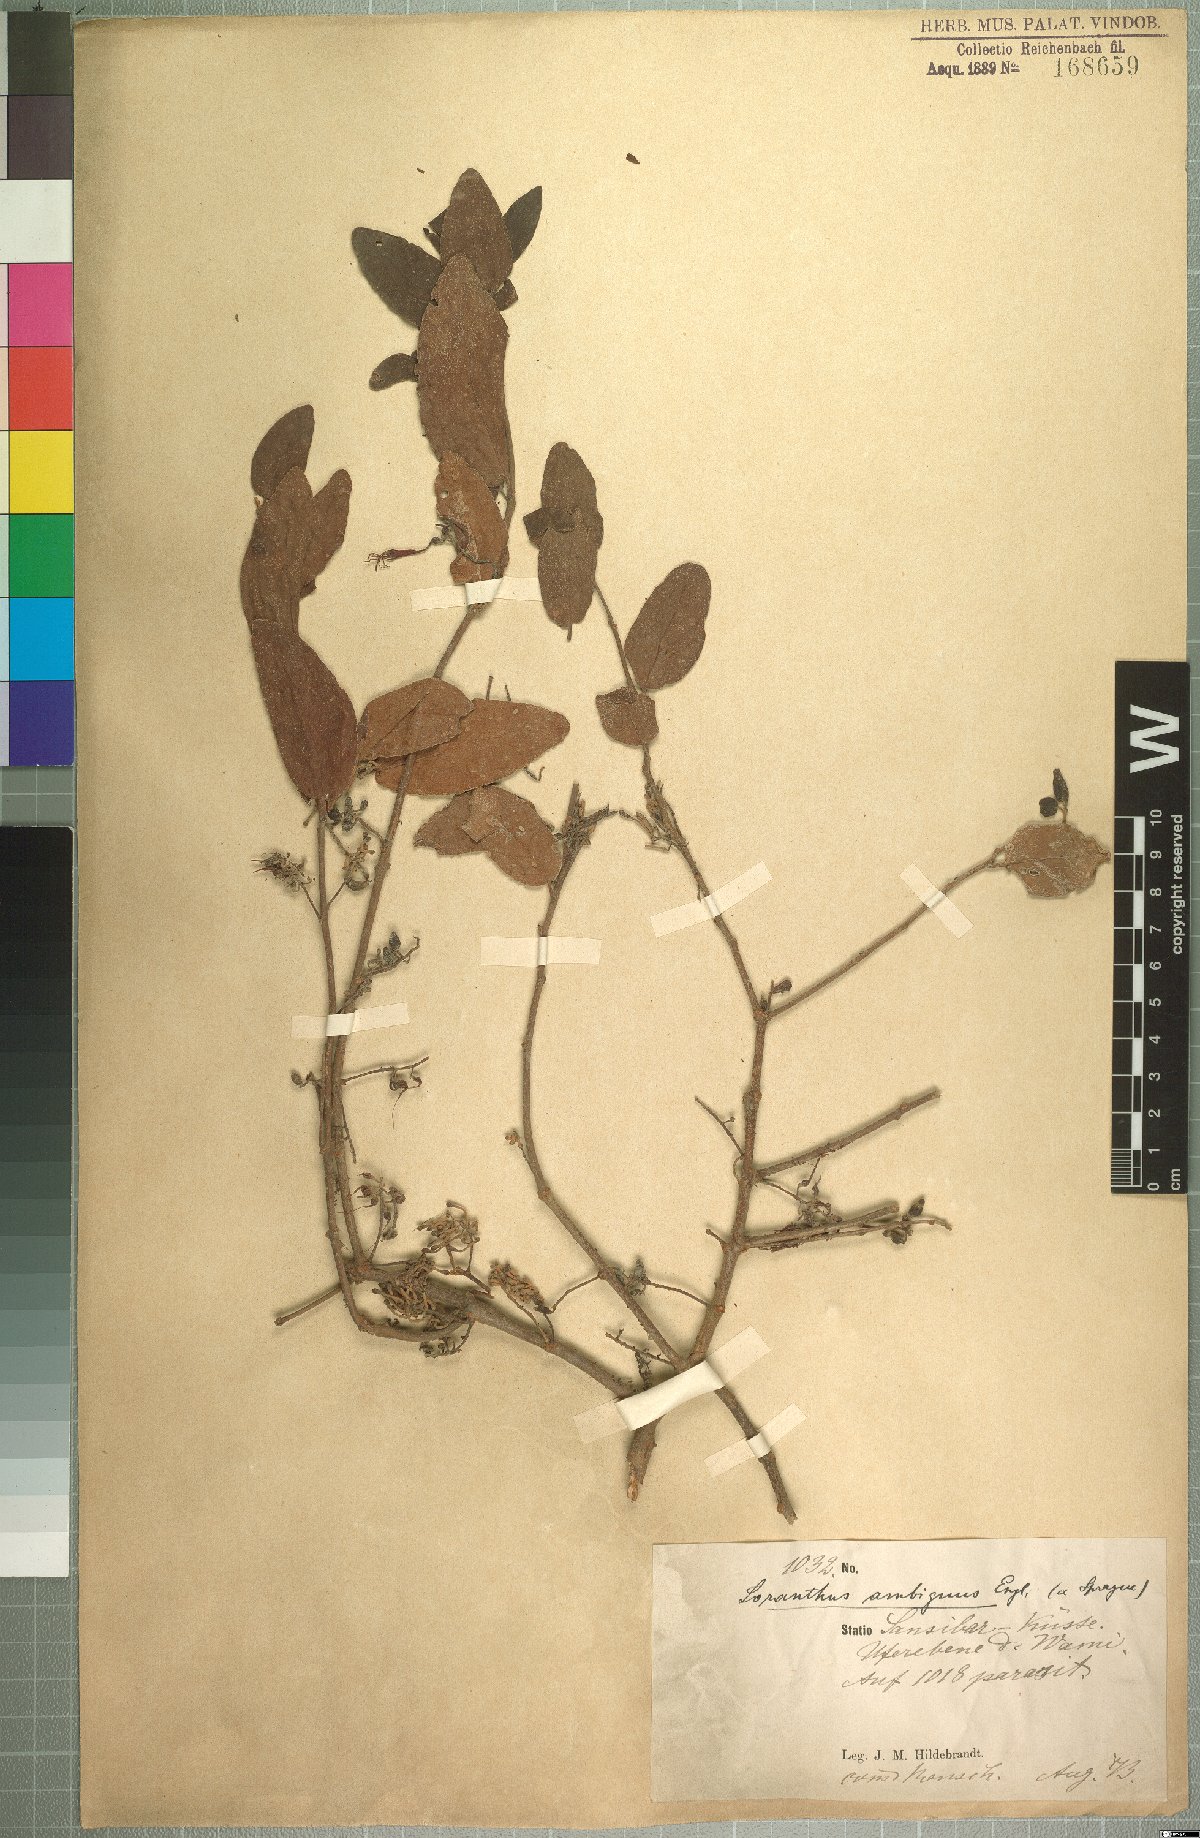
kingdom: Plantae
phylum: Tracheophyta
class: Magnoliopsida
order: Santalales
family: Loranthaceae
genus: Oncella
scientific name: Oncella ambigua
